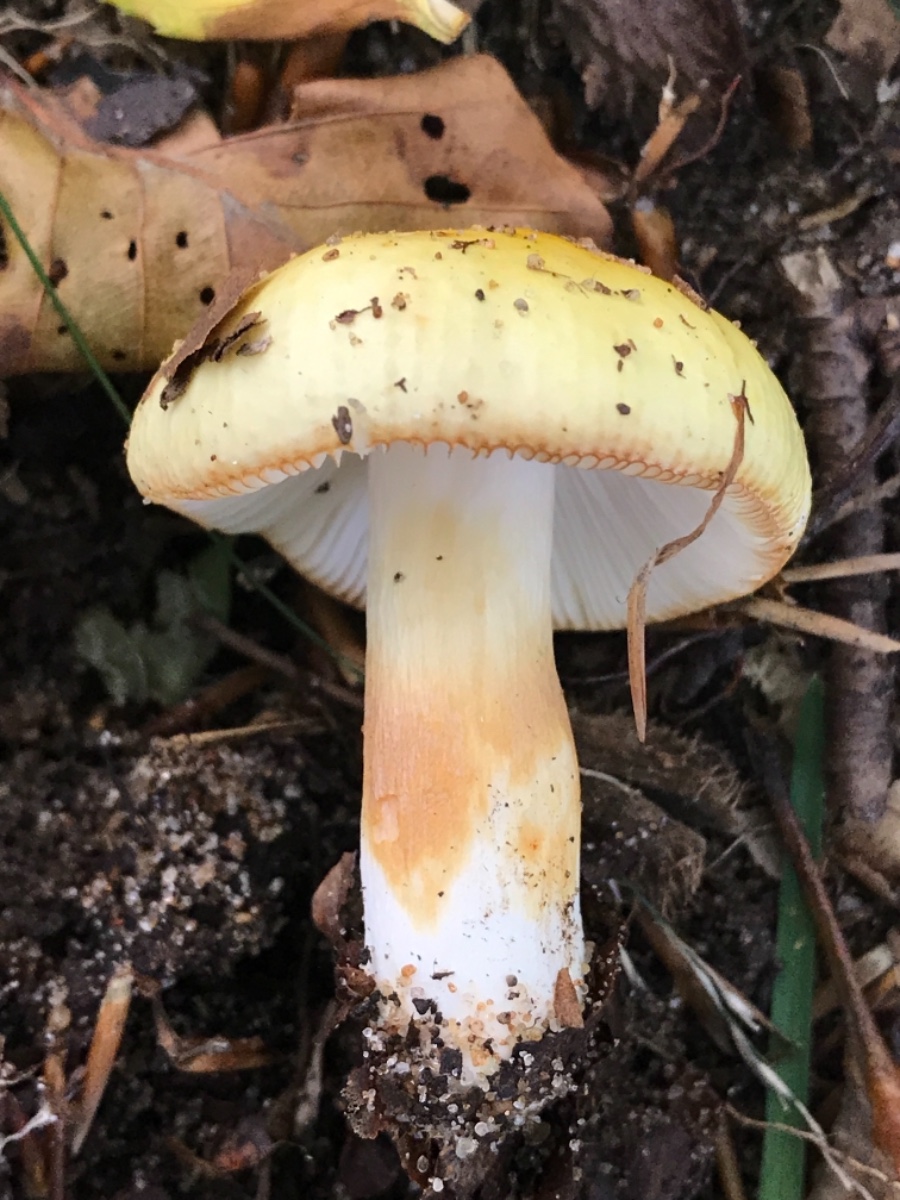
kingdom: Fungi
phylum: Basidiomycota
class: Agaricomycetes
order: Russulales
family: Russulaceae
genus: Russula
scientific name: Russula solaris
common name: sol-skørhat
